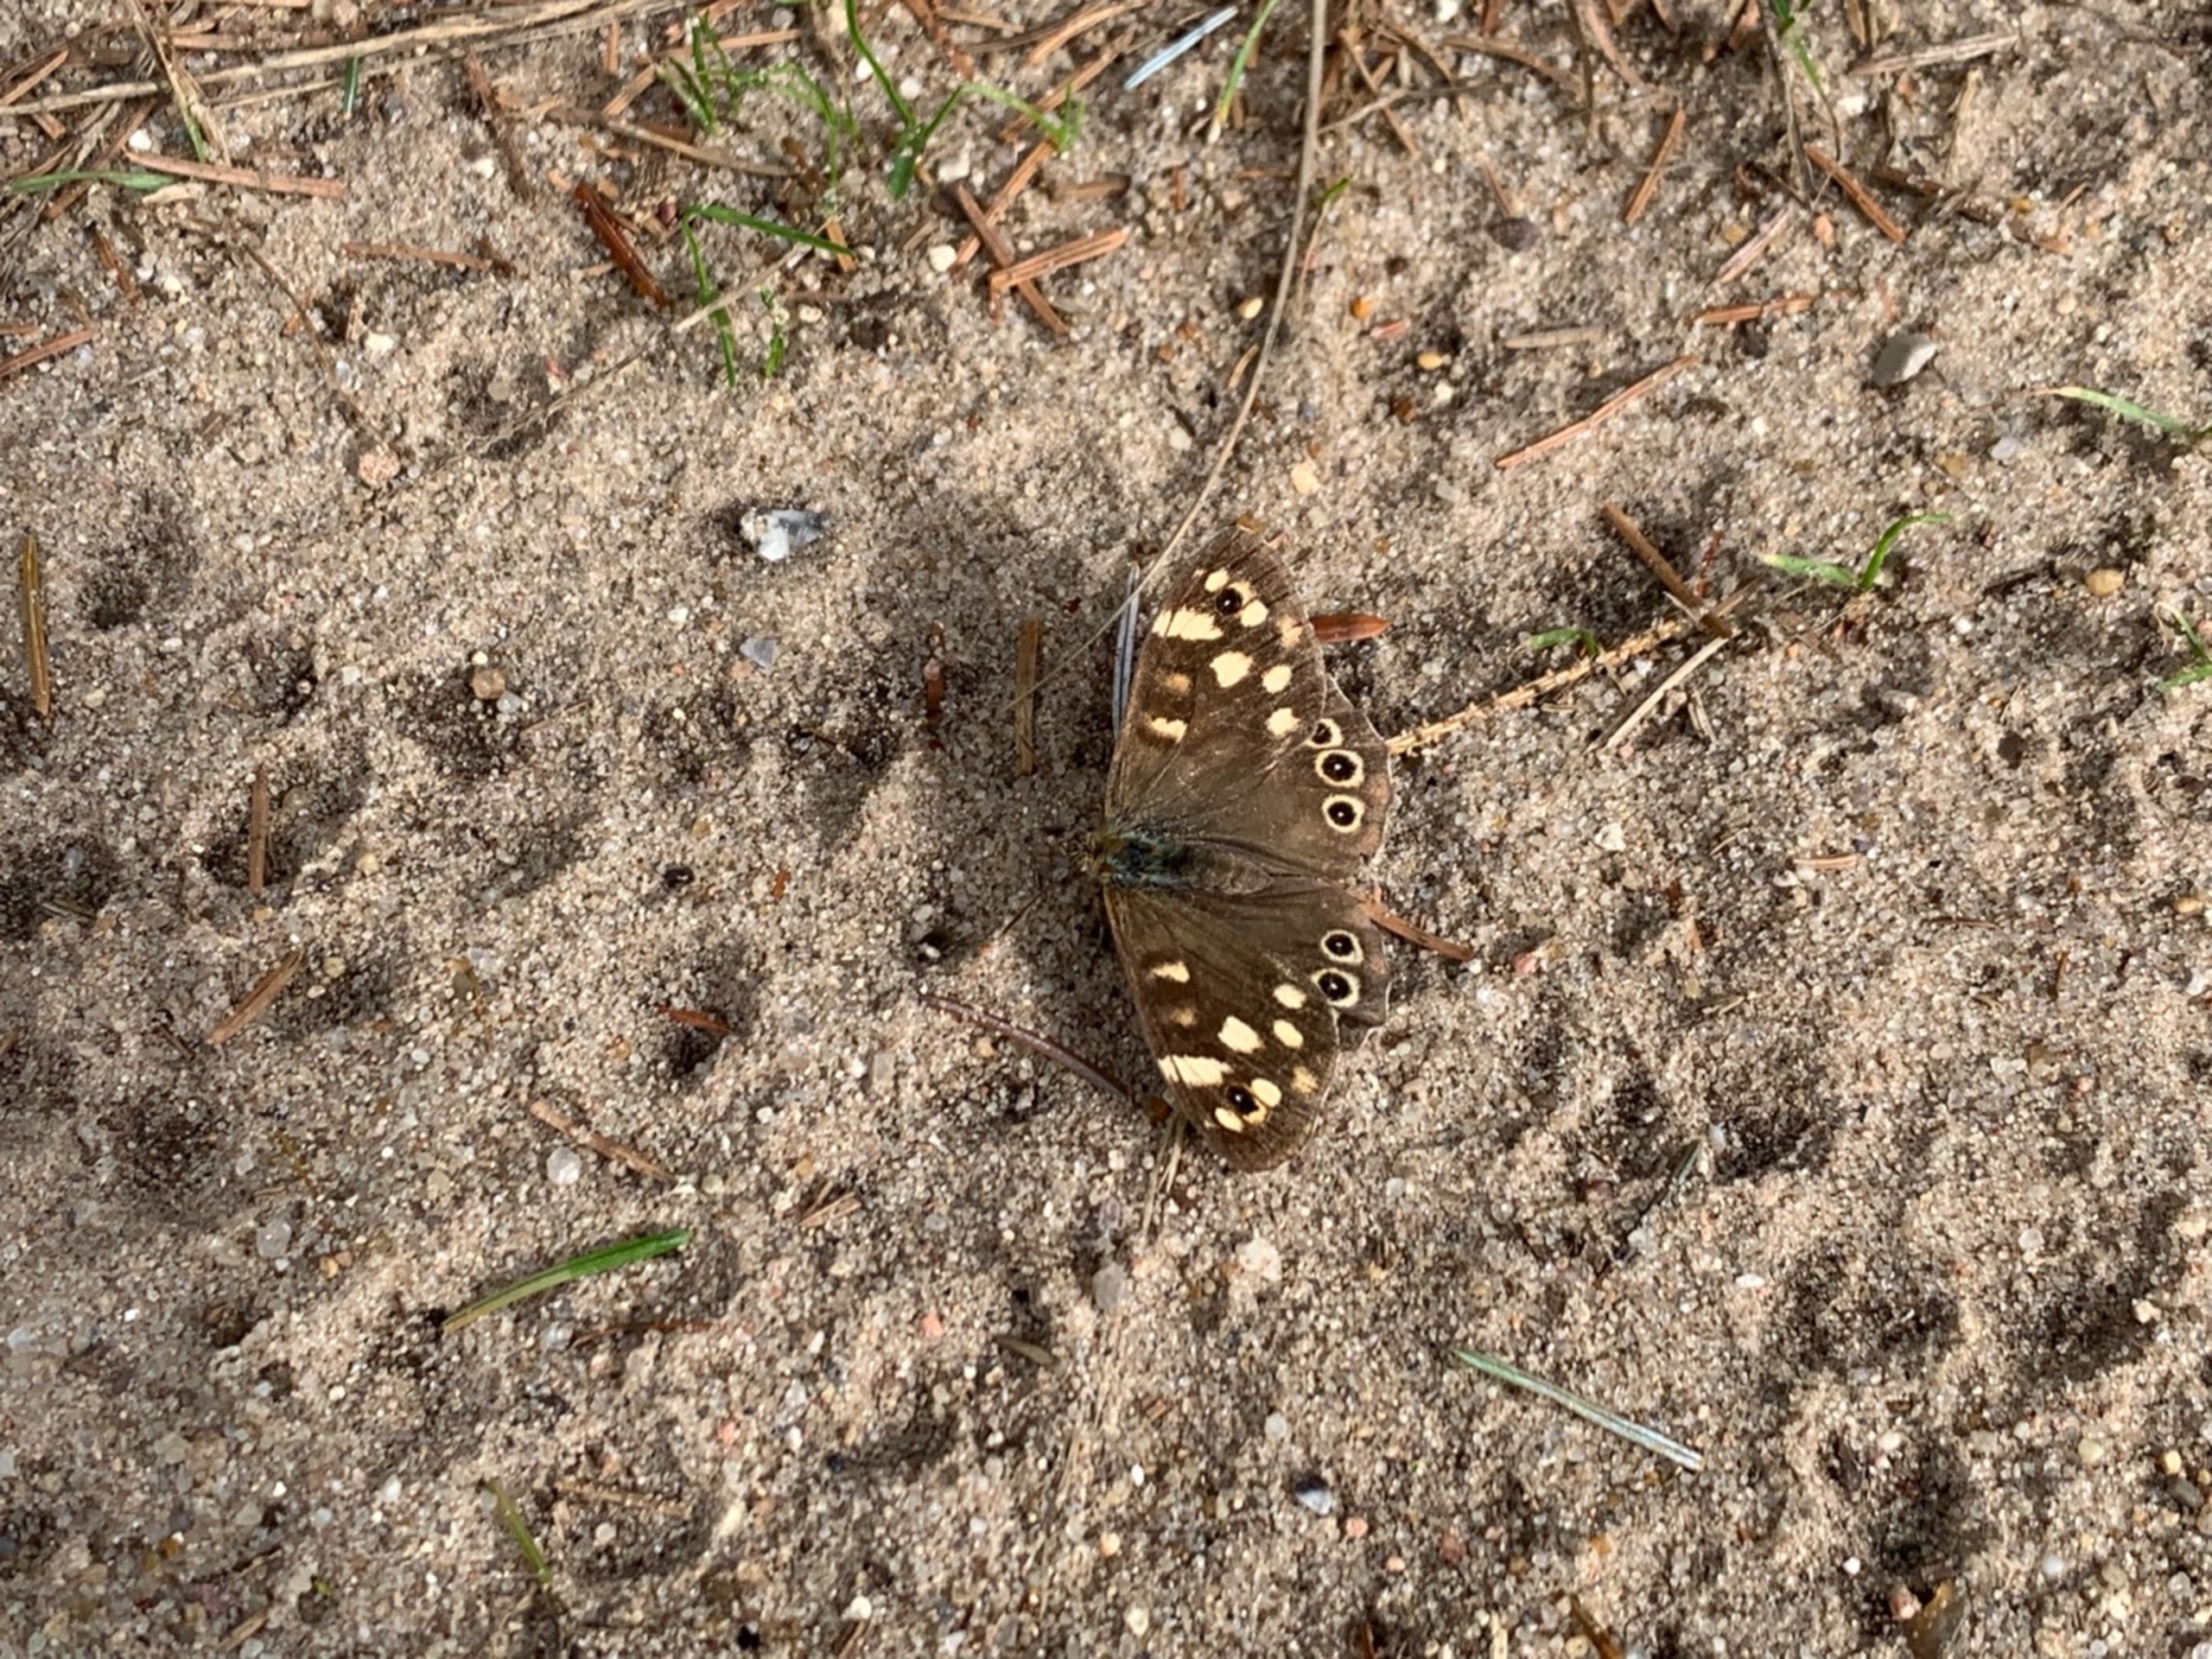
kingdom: Animalia
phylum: Arthropoda
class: Insecta
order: Lepidoptera
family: Nymphalidae
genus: Pararge
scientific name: Pararge aegeria
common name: Skovrandøje
